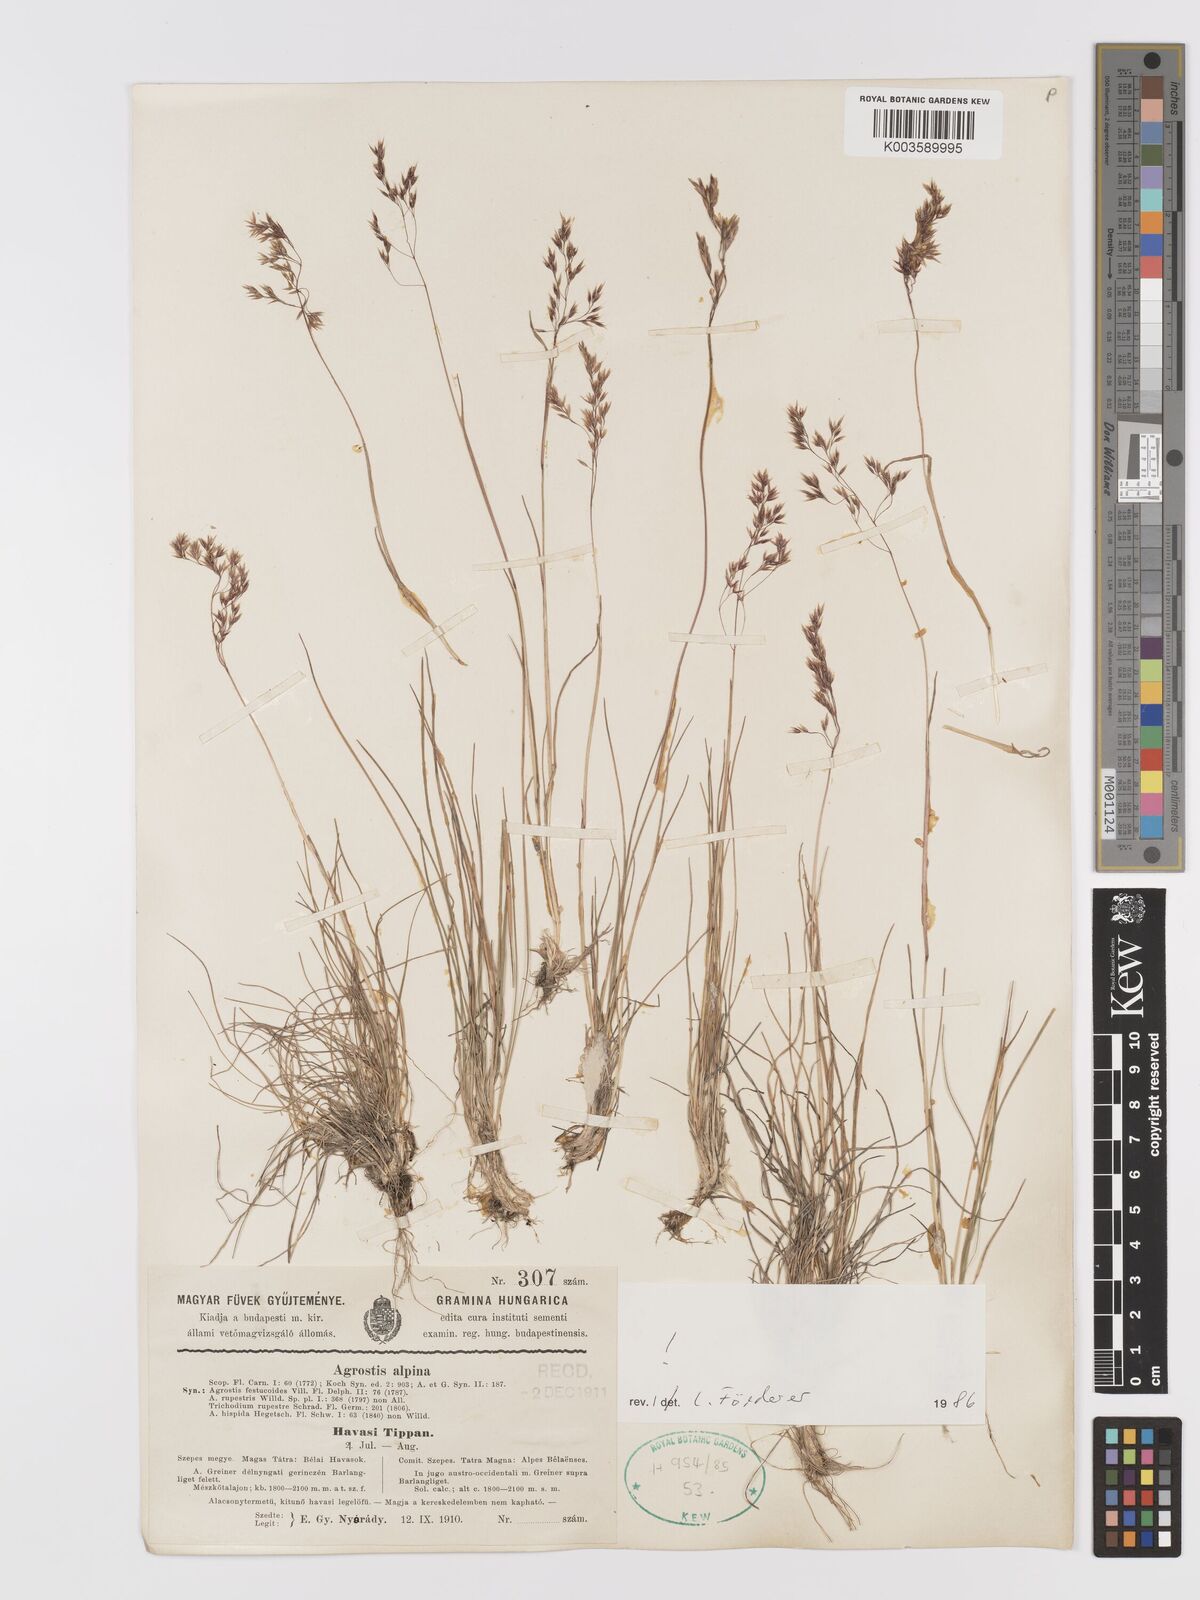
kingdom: Plantae
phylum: Tracheophyta
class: Liliopsida
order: Poales
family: Poaceae
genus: Alpagrostis
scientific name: Alpagrostis alpina
